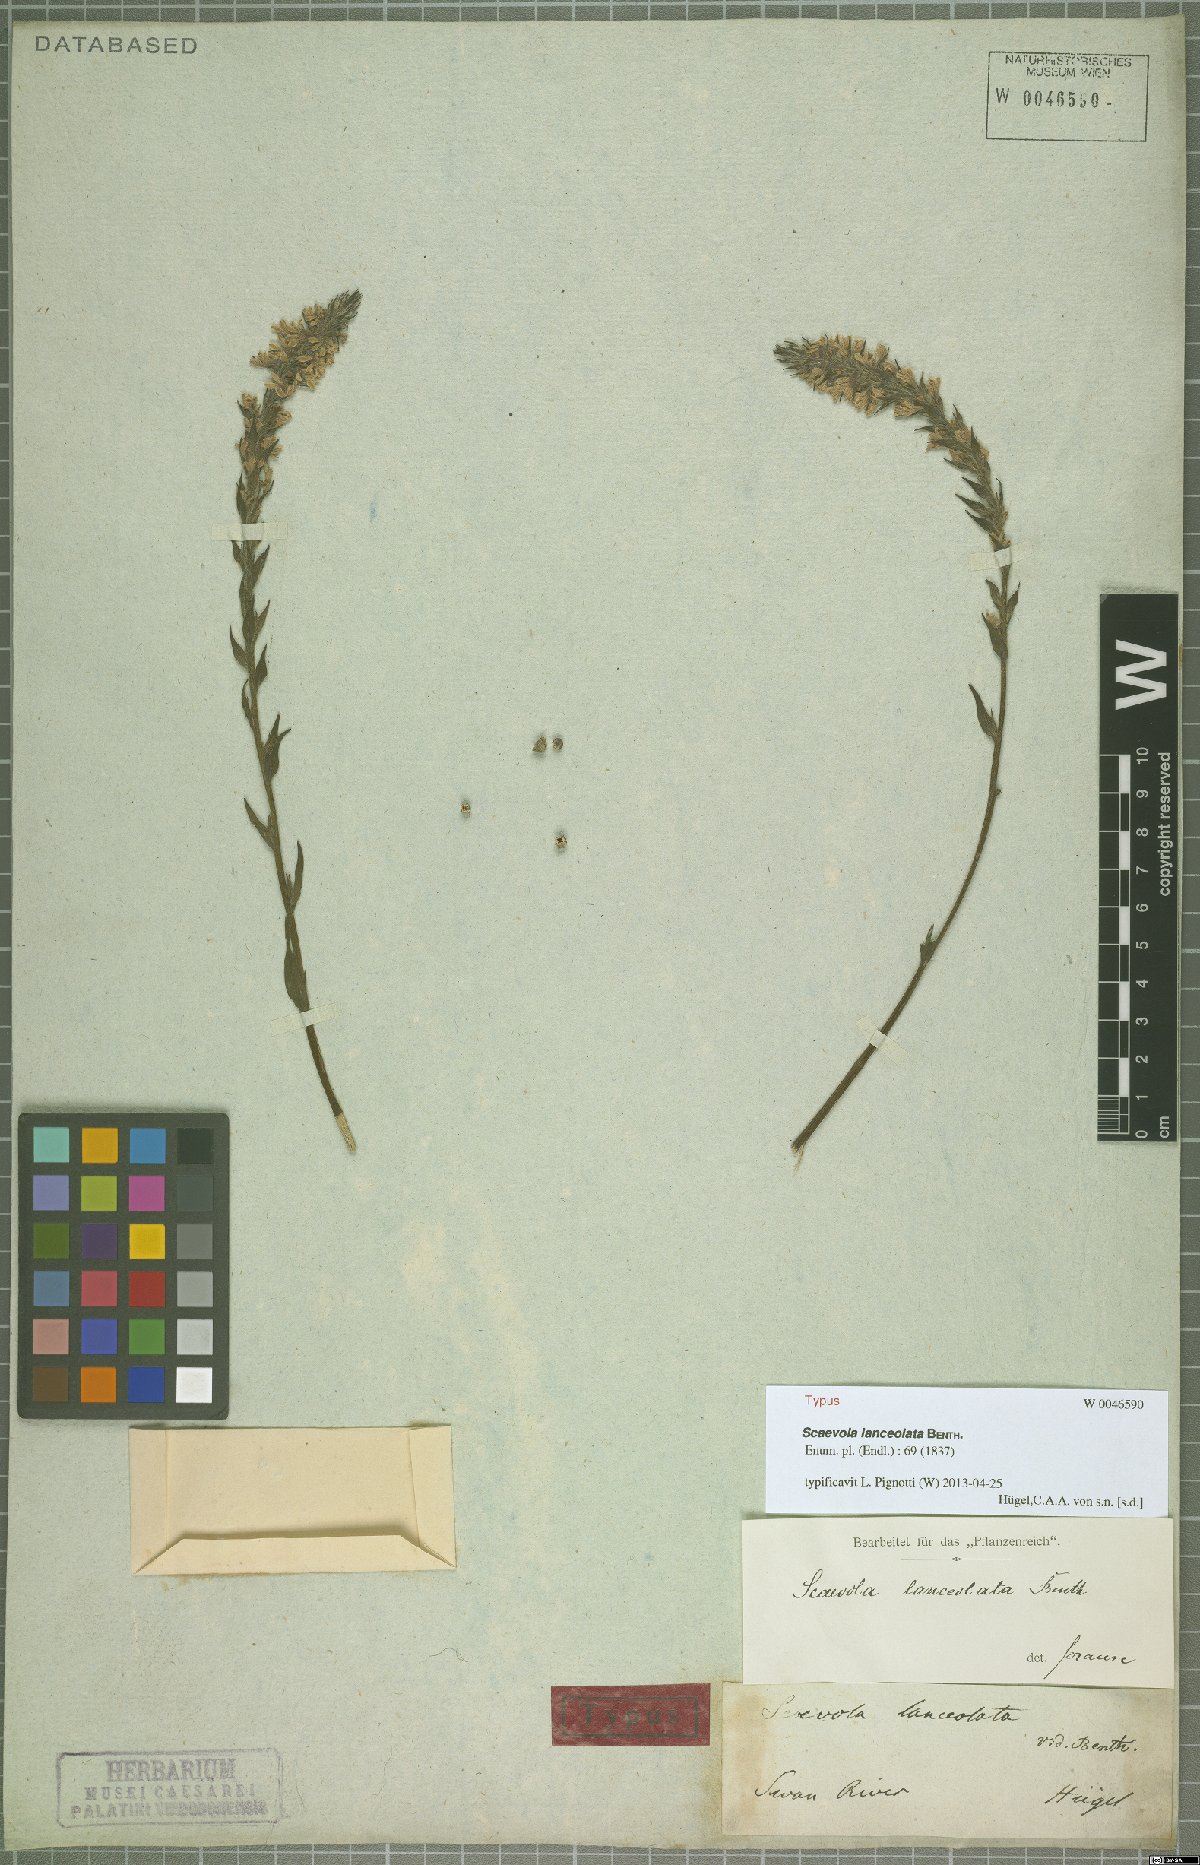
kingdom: Plantae
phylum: Tracheophyta
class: Magnoliopsida
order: Asterales
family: Goodeniaceae
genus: Scaevola
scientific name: Scaevola lanceolata
